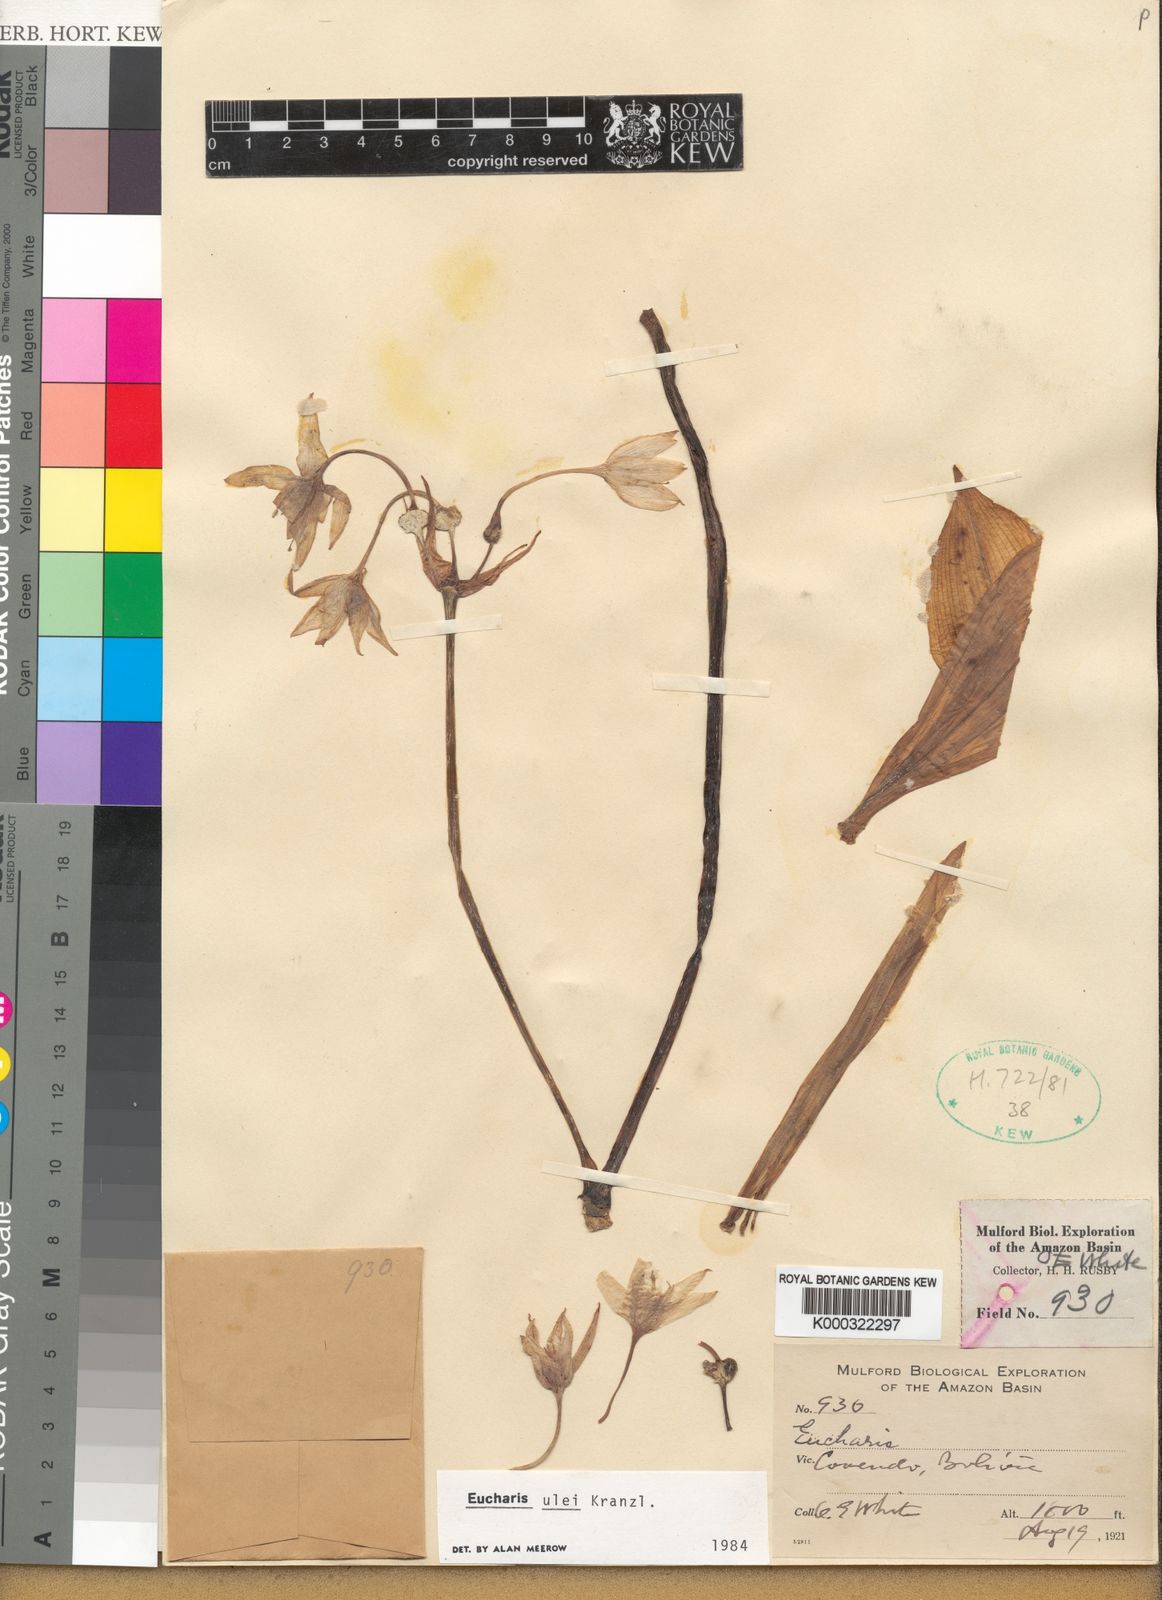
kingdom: Plantae
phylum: Tracheophyta
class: Liliopsida
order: Asparagales
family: Amaryllidaceae
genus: Urceolina
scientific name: Urceolina ulei
